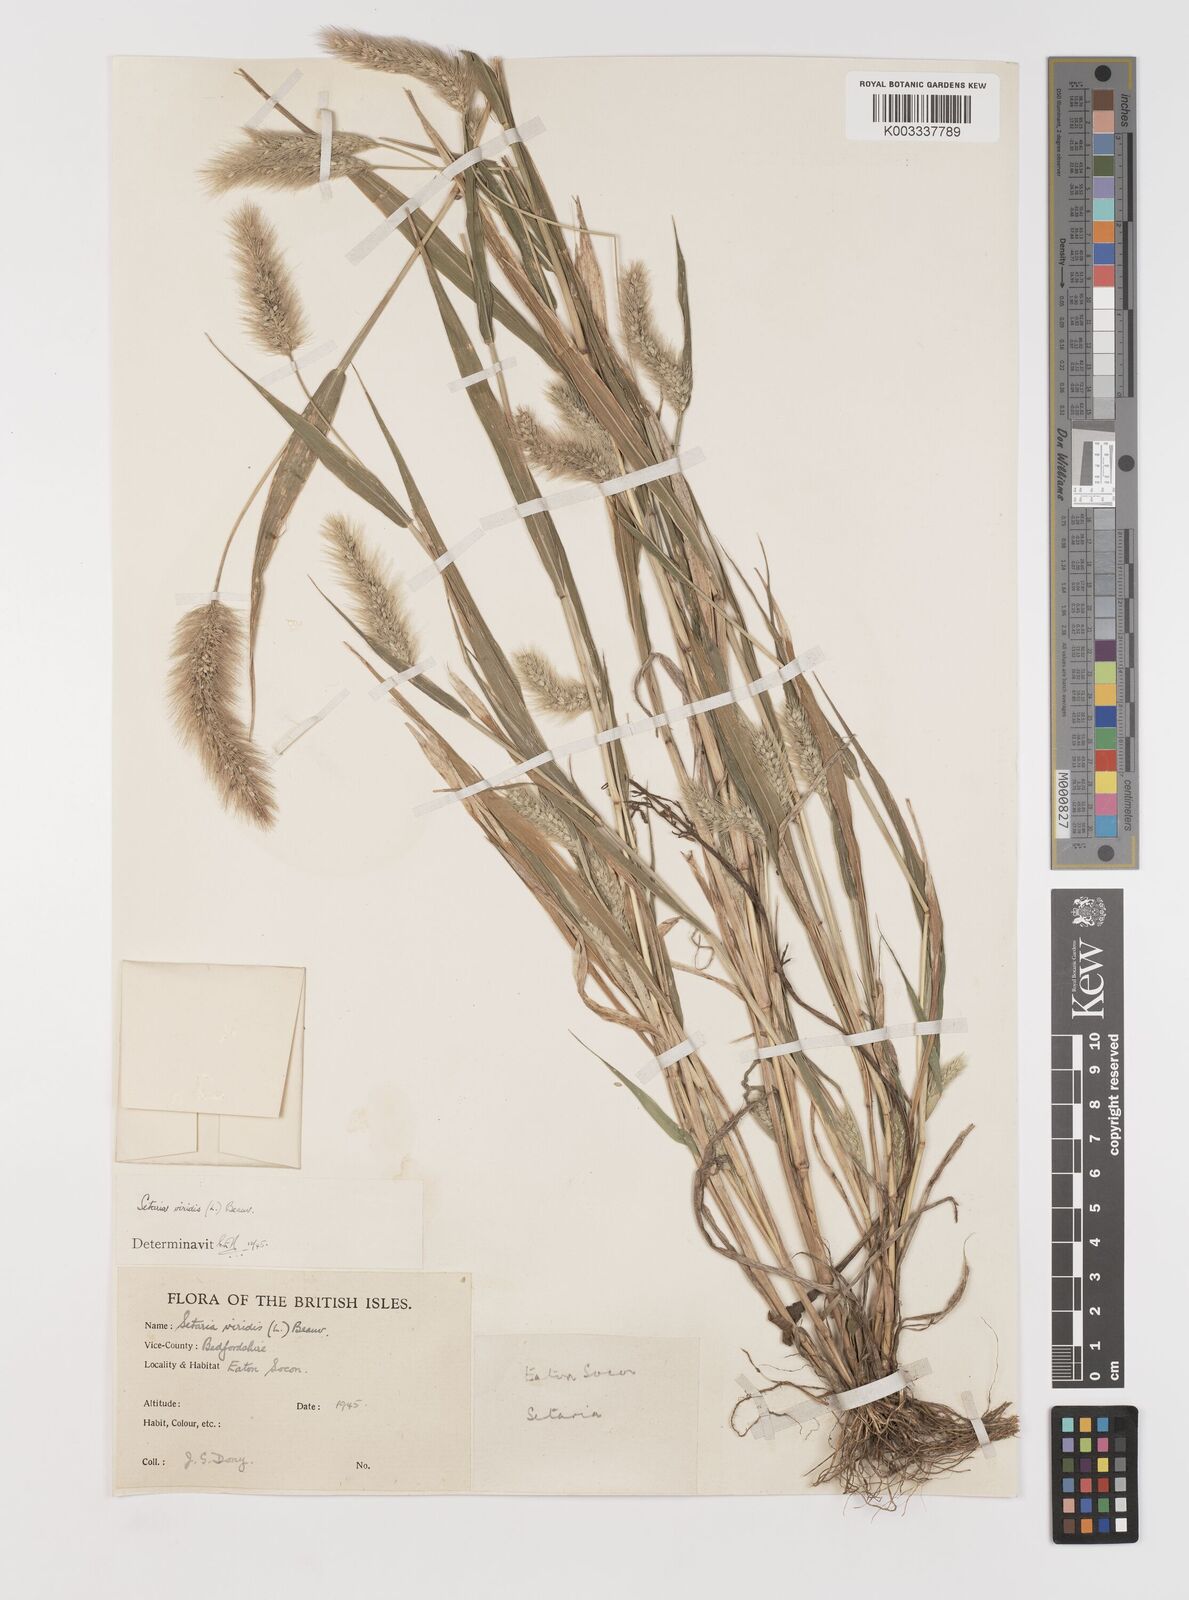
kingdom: Plantae
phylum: Tracheophyta
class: Liliopsida
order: Poales
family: Poaceae
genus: Setaria
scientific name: Setaria viridis
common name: Green bristlegrass
